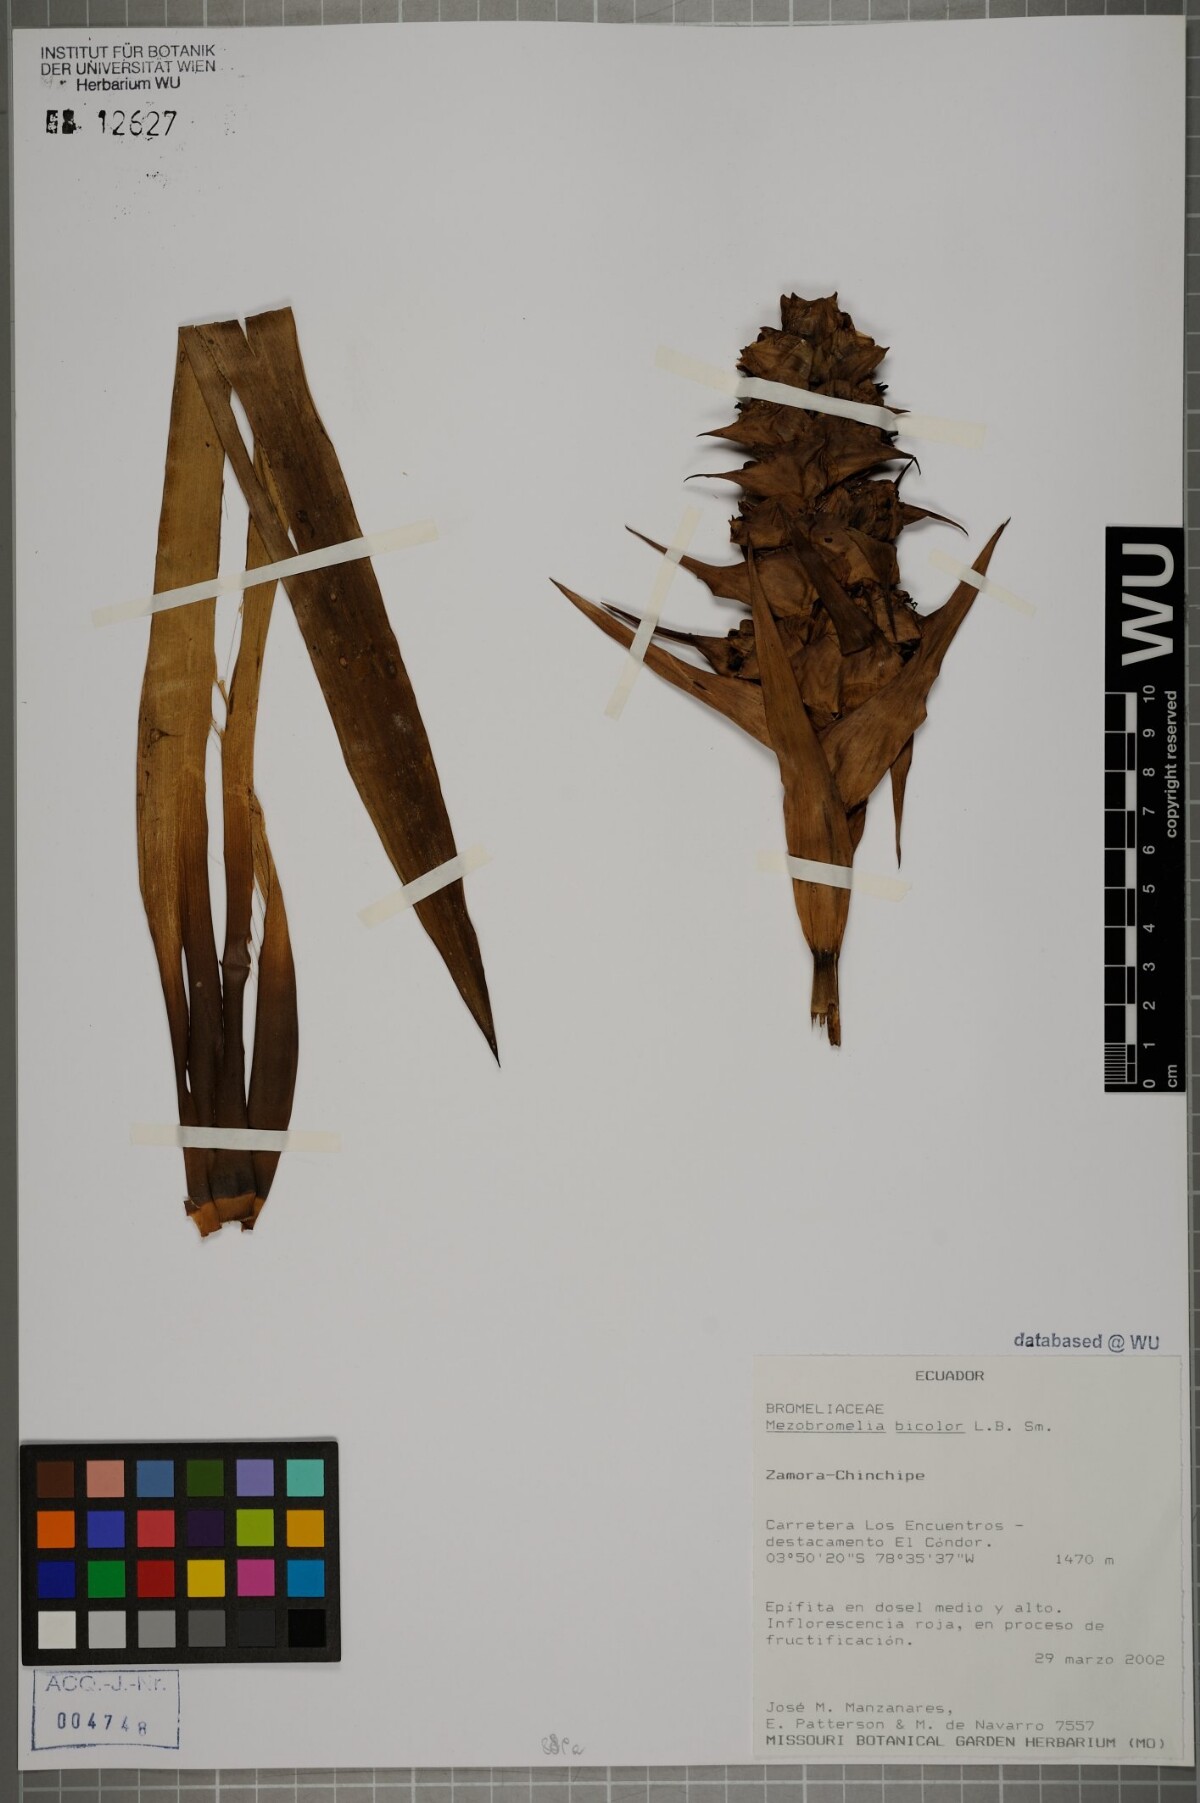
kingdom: Plantae
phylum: Tracheophyta
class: Liliopsida
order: Poales
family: Bromeliaceae
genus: Cipuropsis
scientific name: Cipuropsis bicolor
